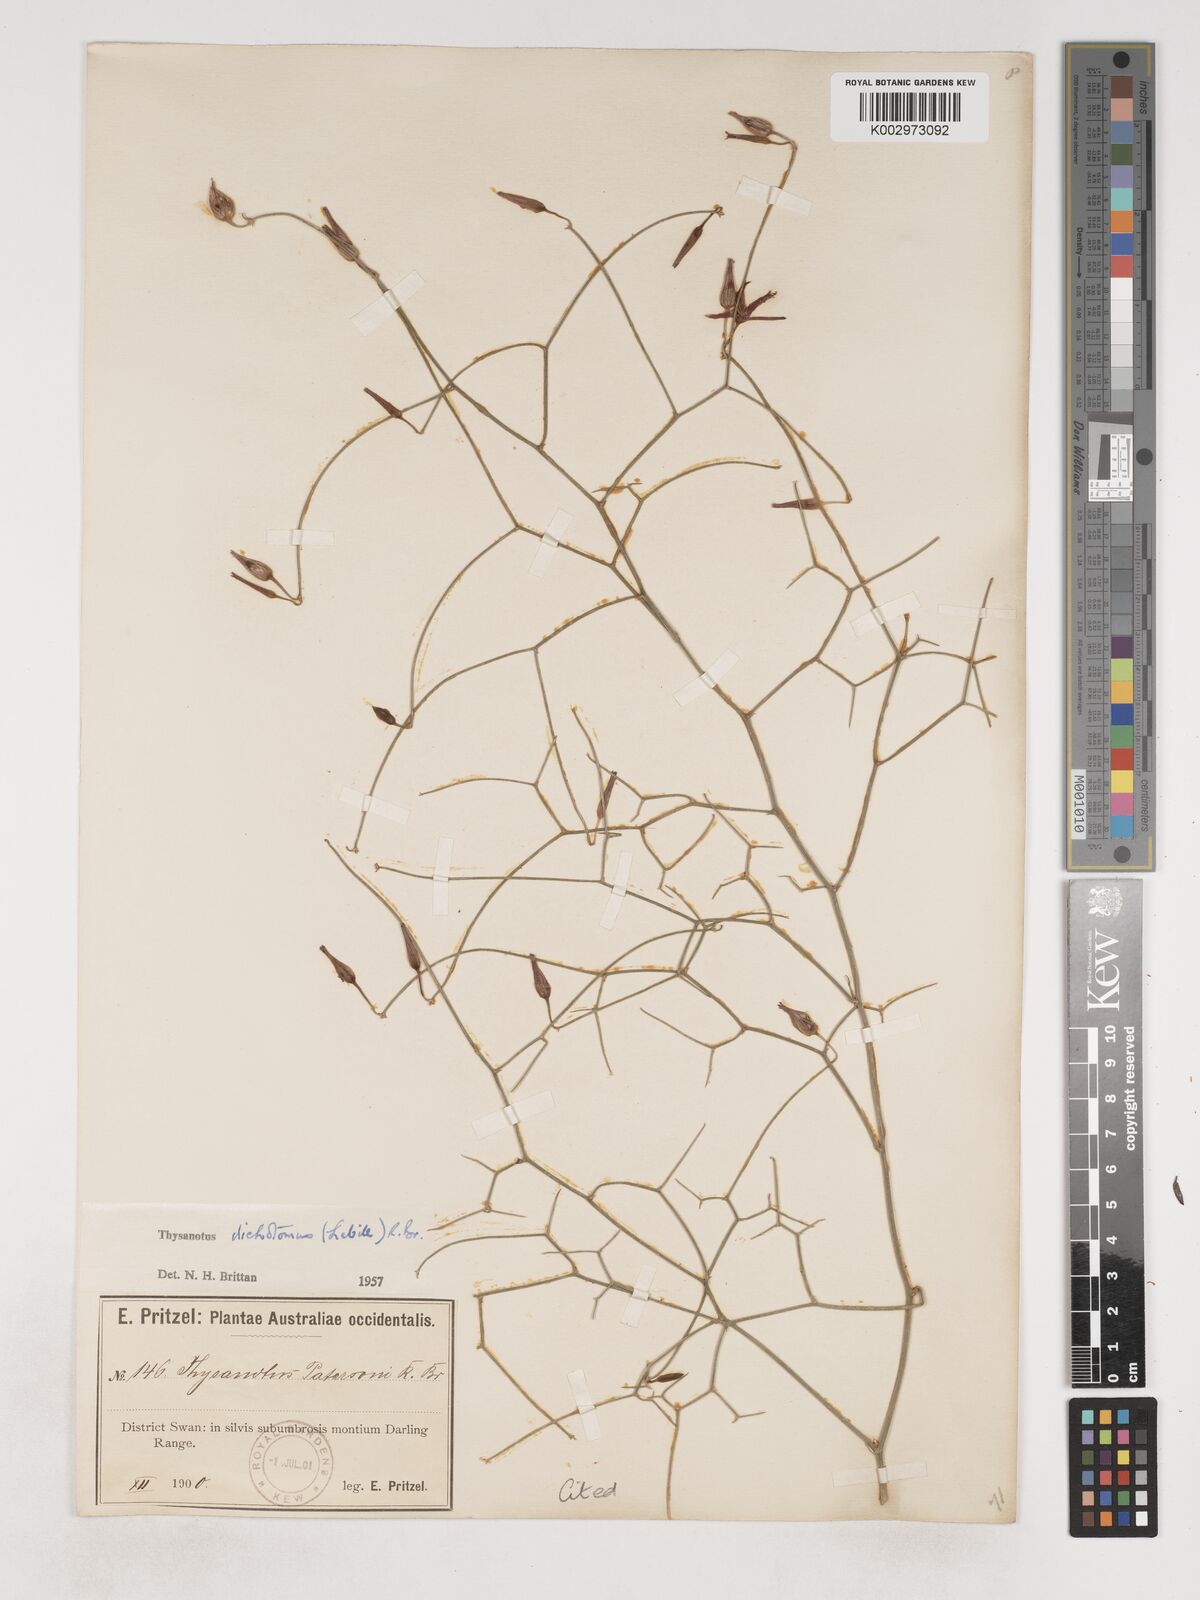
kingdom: Plantae
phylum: Tracheophyta
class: Liliopsida
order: Asparagales
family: Asparagaceae
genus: Thysanotus
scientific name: Thysanotus dichotomus
